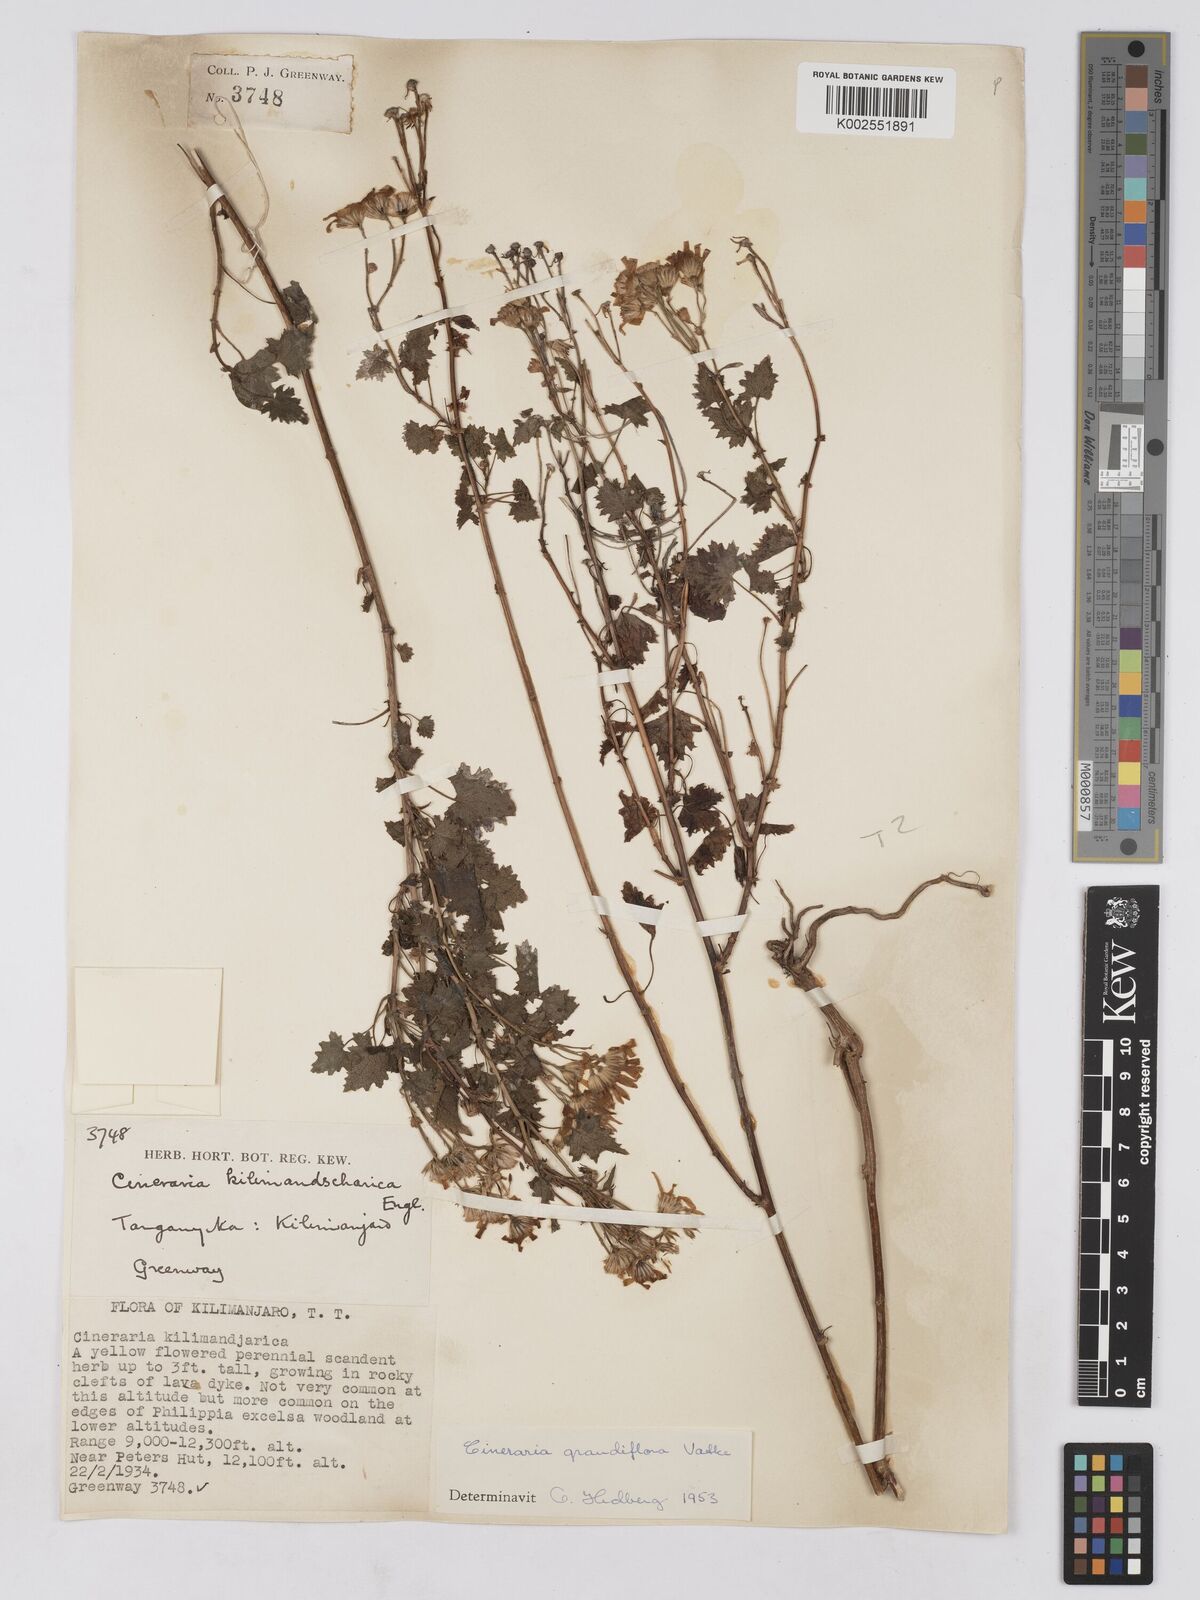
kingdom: Plantae
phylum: Tracheophyta
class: Magnoliopsida
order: Asterales
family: Asteraceae
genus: Cineraria
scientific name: Cineraria deltoidea
